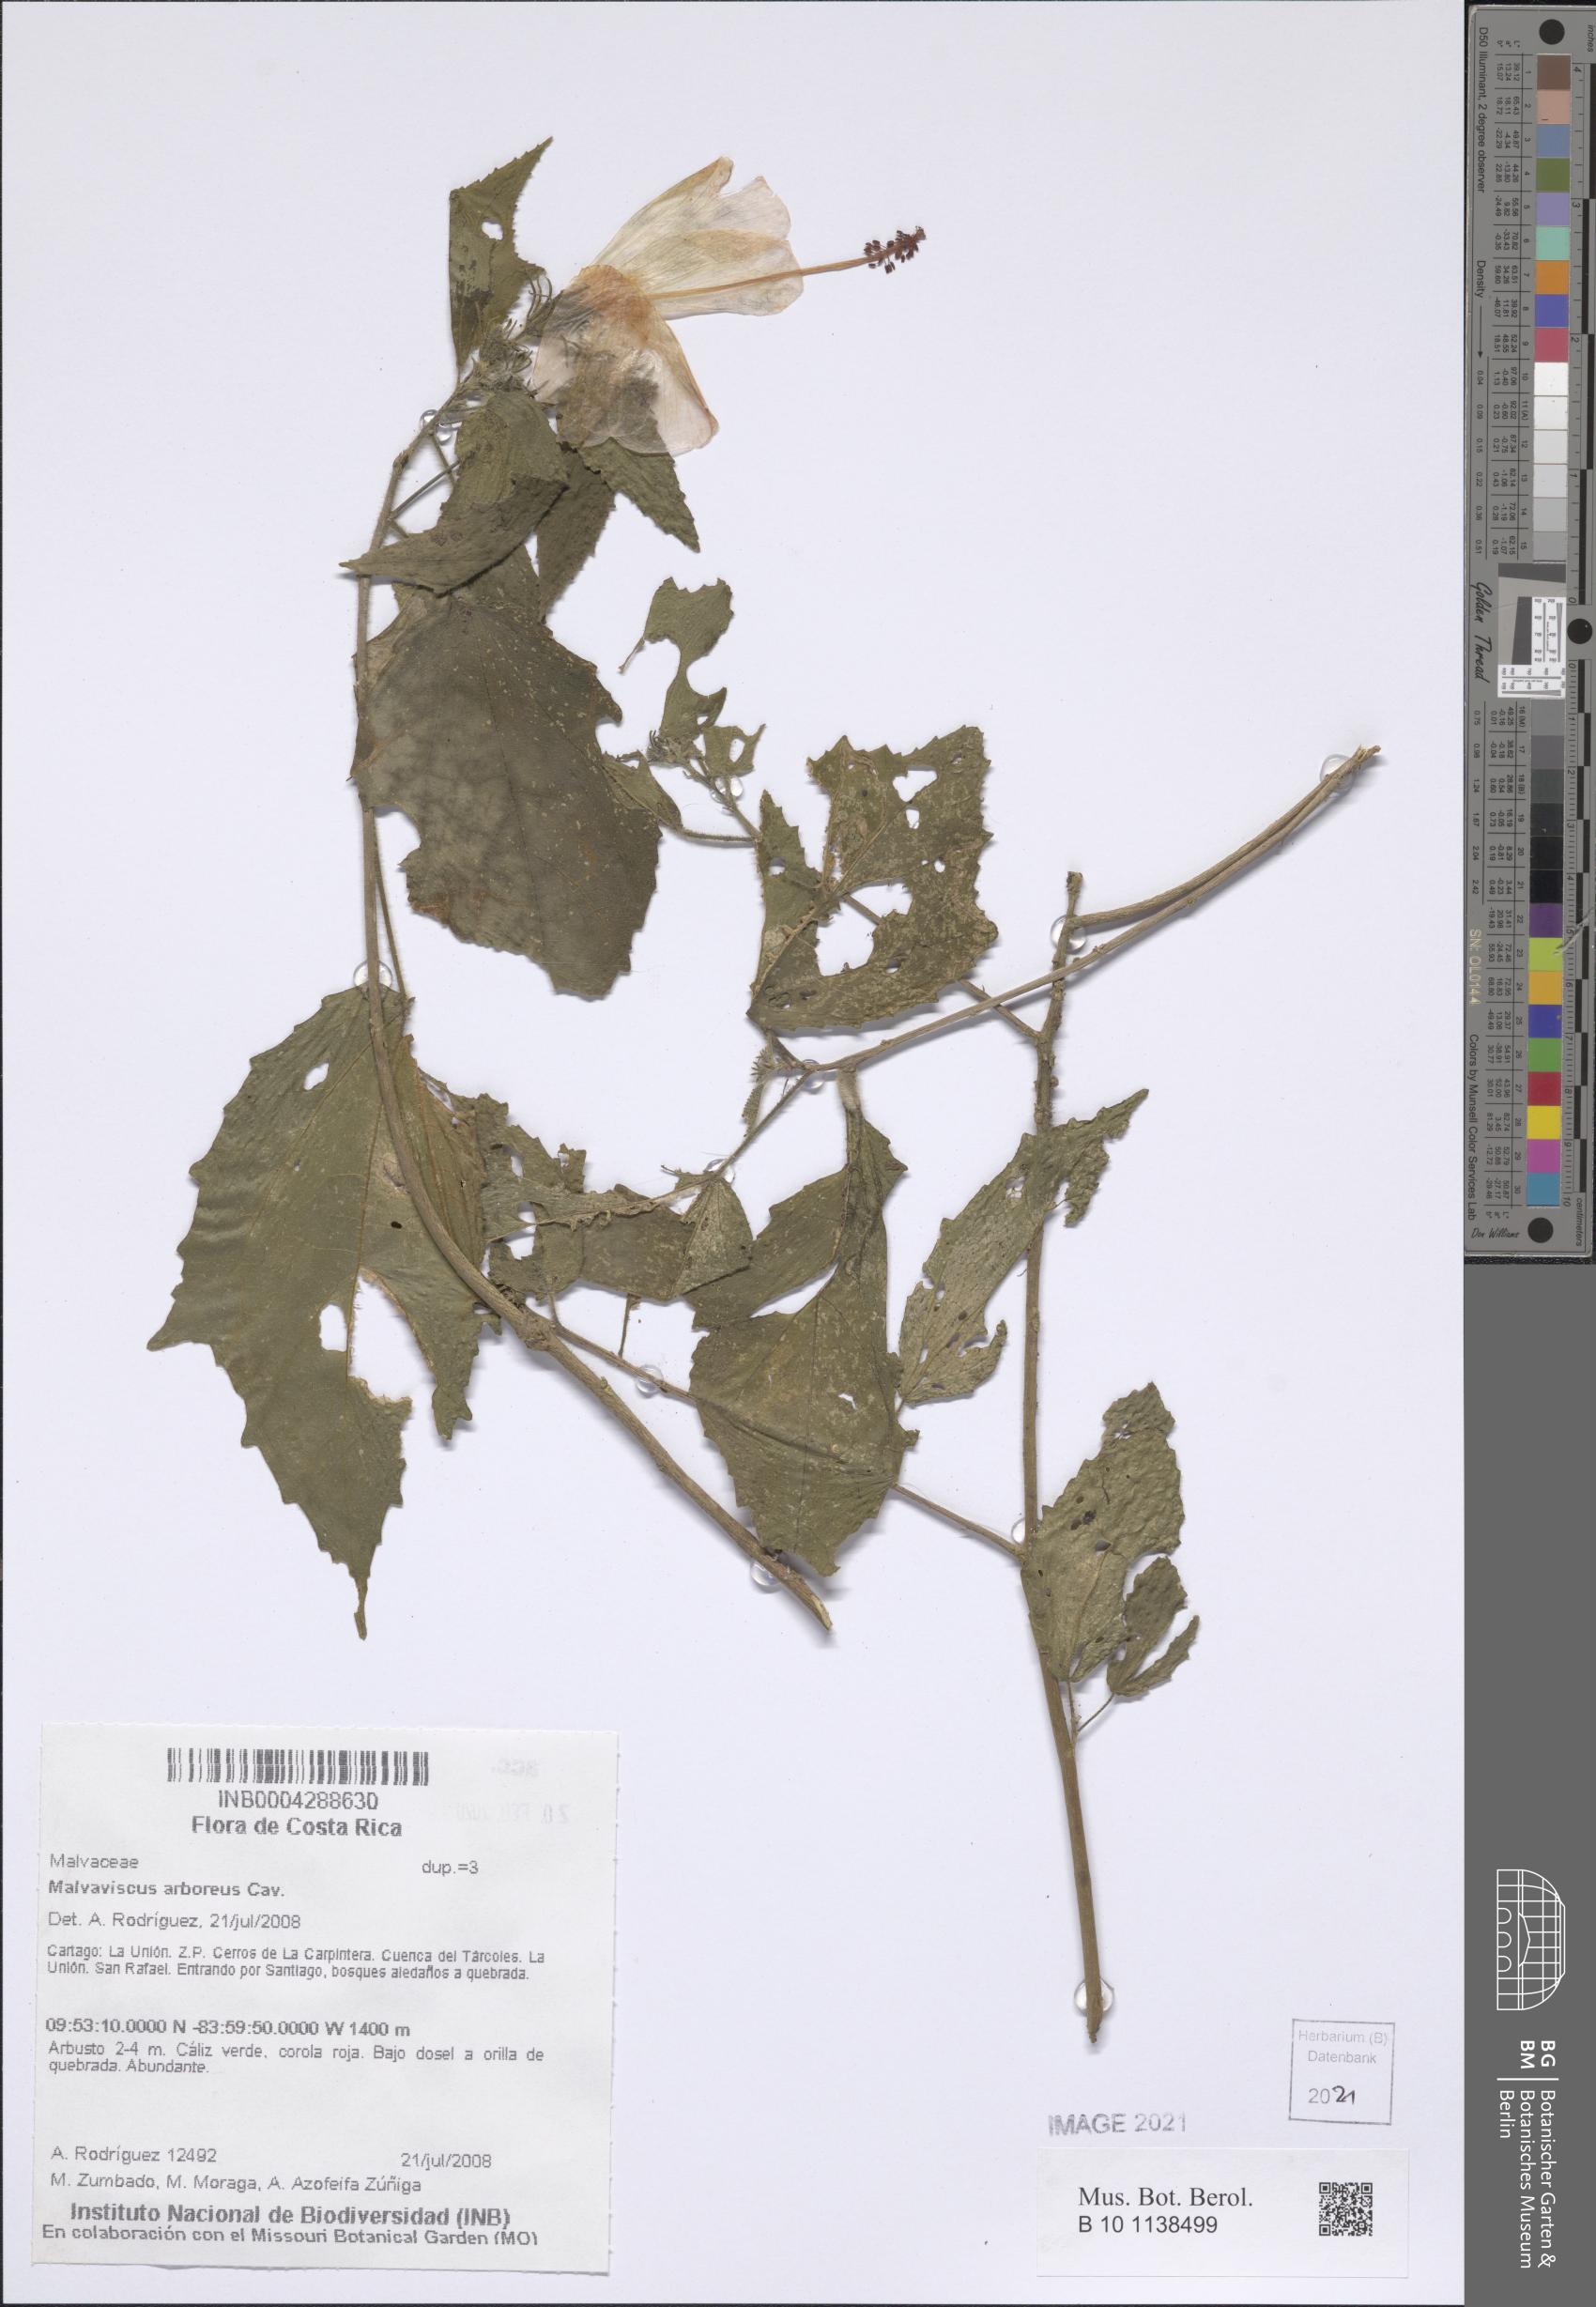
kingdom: Plantae
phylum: Tracheophyta
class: Magnoliopsida
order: Malvales
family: Malvaceae
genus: Malvaviscus
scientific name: Malvaviscus arboreus
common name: Wax mallow
